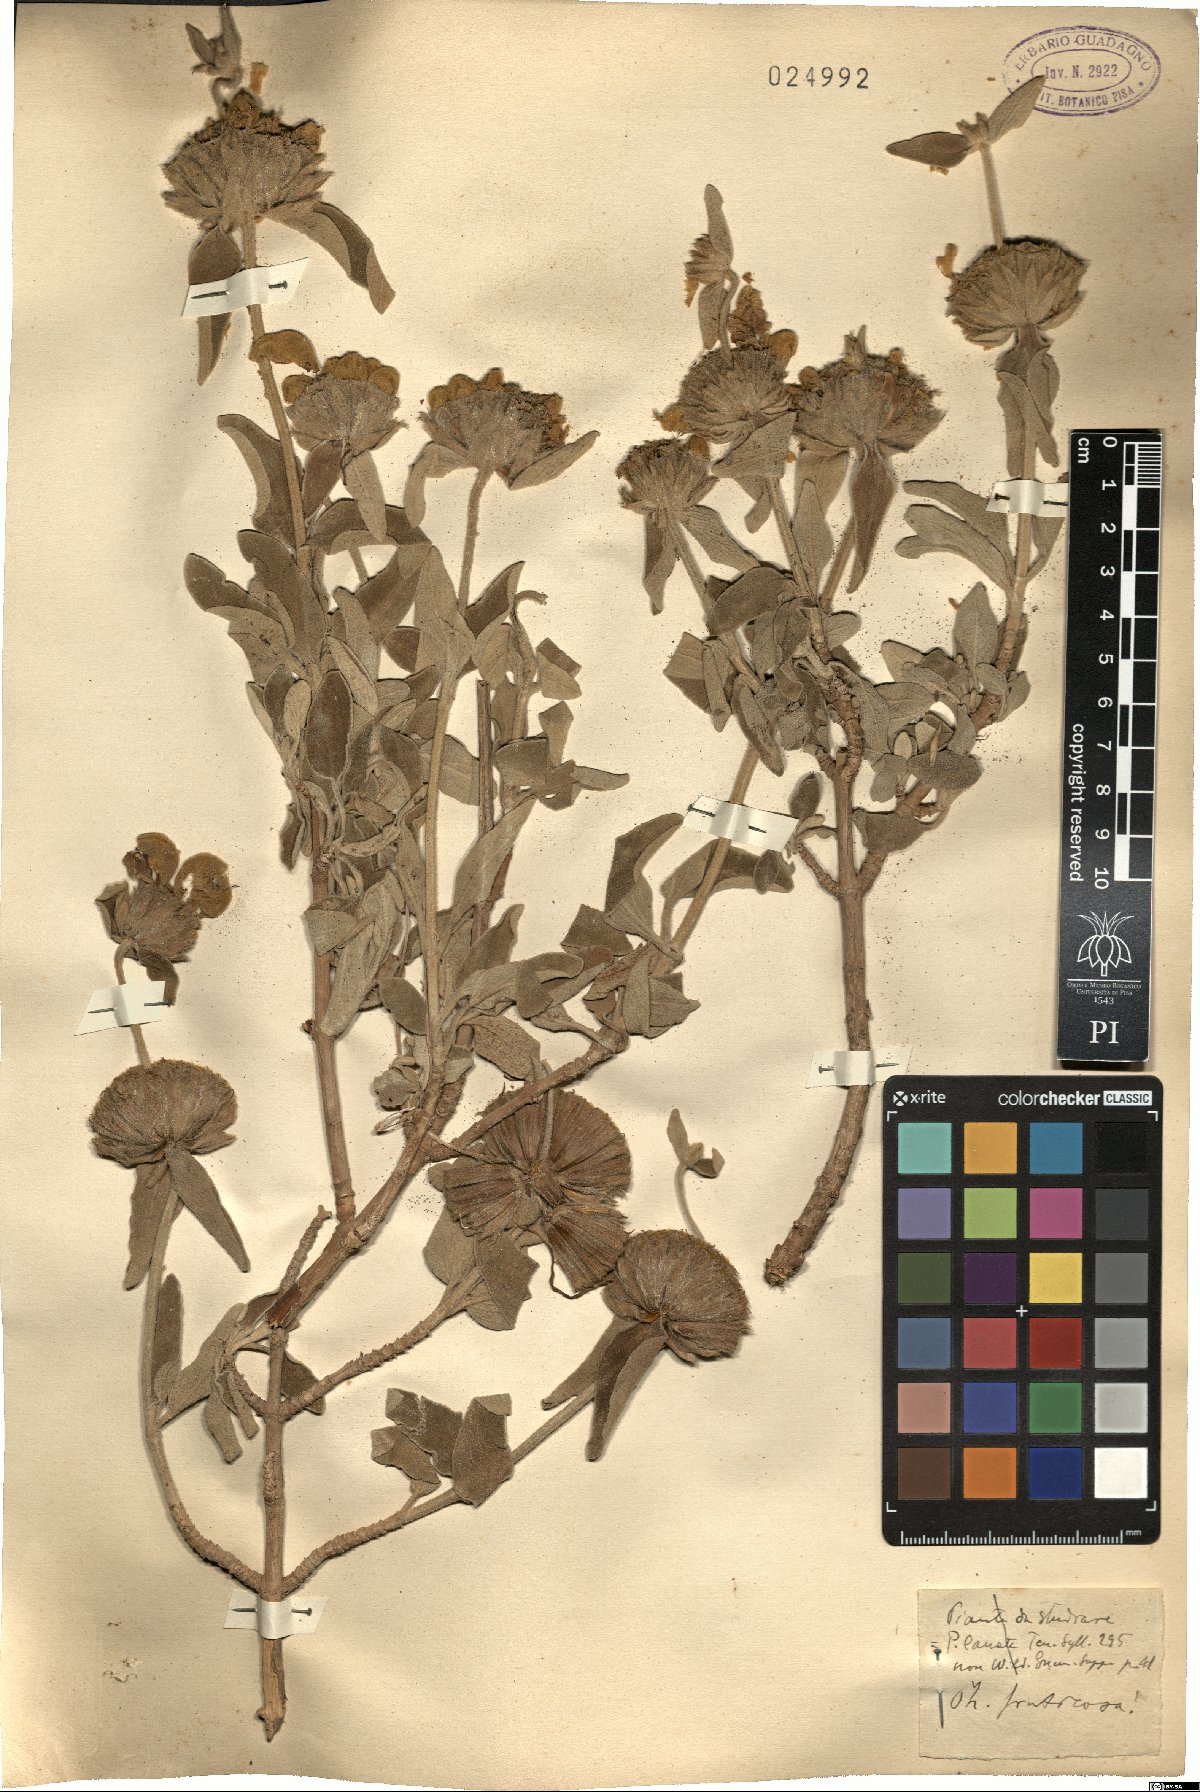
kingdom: Plantae
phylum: Tracheophyta
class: Magnoliopsida
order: Lamiales
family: Lamiaceae
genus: Phlomis
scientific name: Phlomis fruticosa
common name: Jerusalem sage
